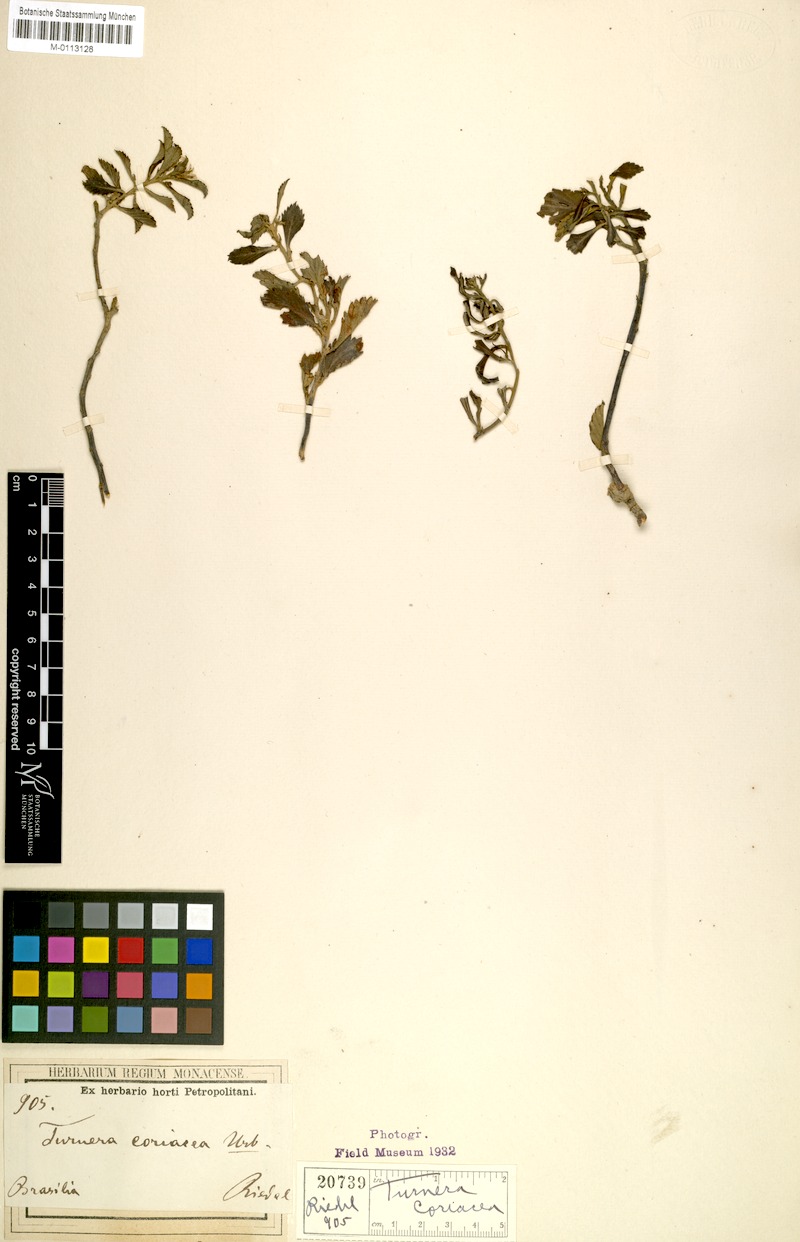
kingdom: Plantae
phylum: Tracheophyta
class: Magnoliopsida
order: Malpighiales
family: Turneraceae
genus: Turnera
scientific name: Turnera coriacea
